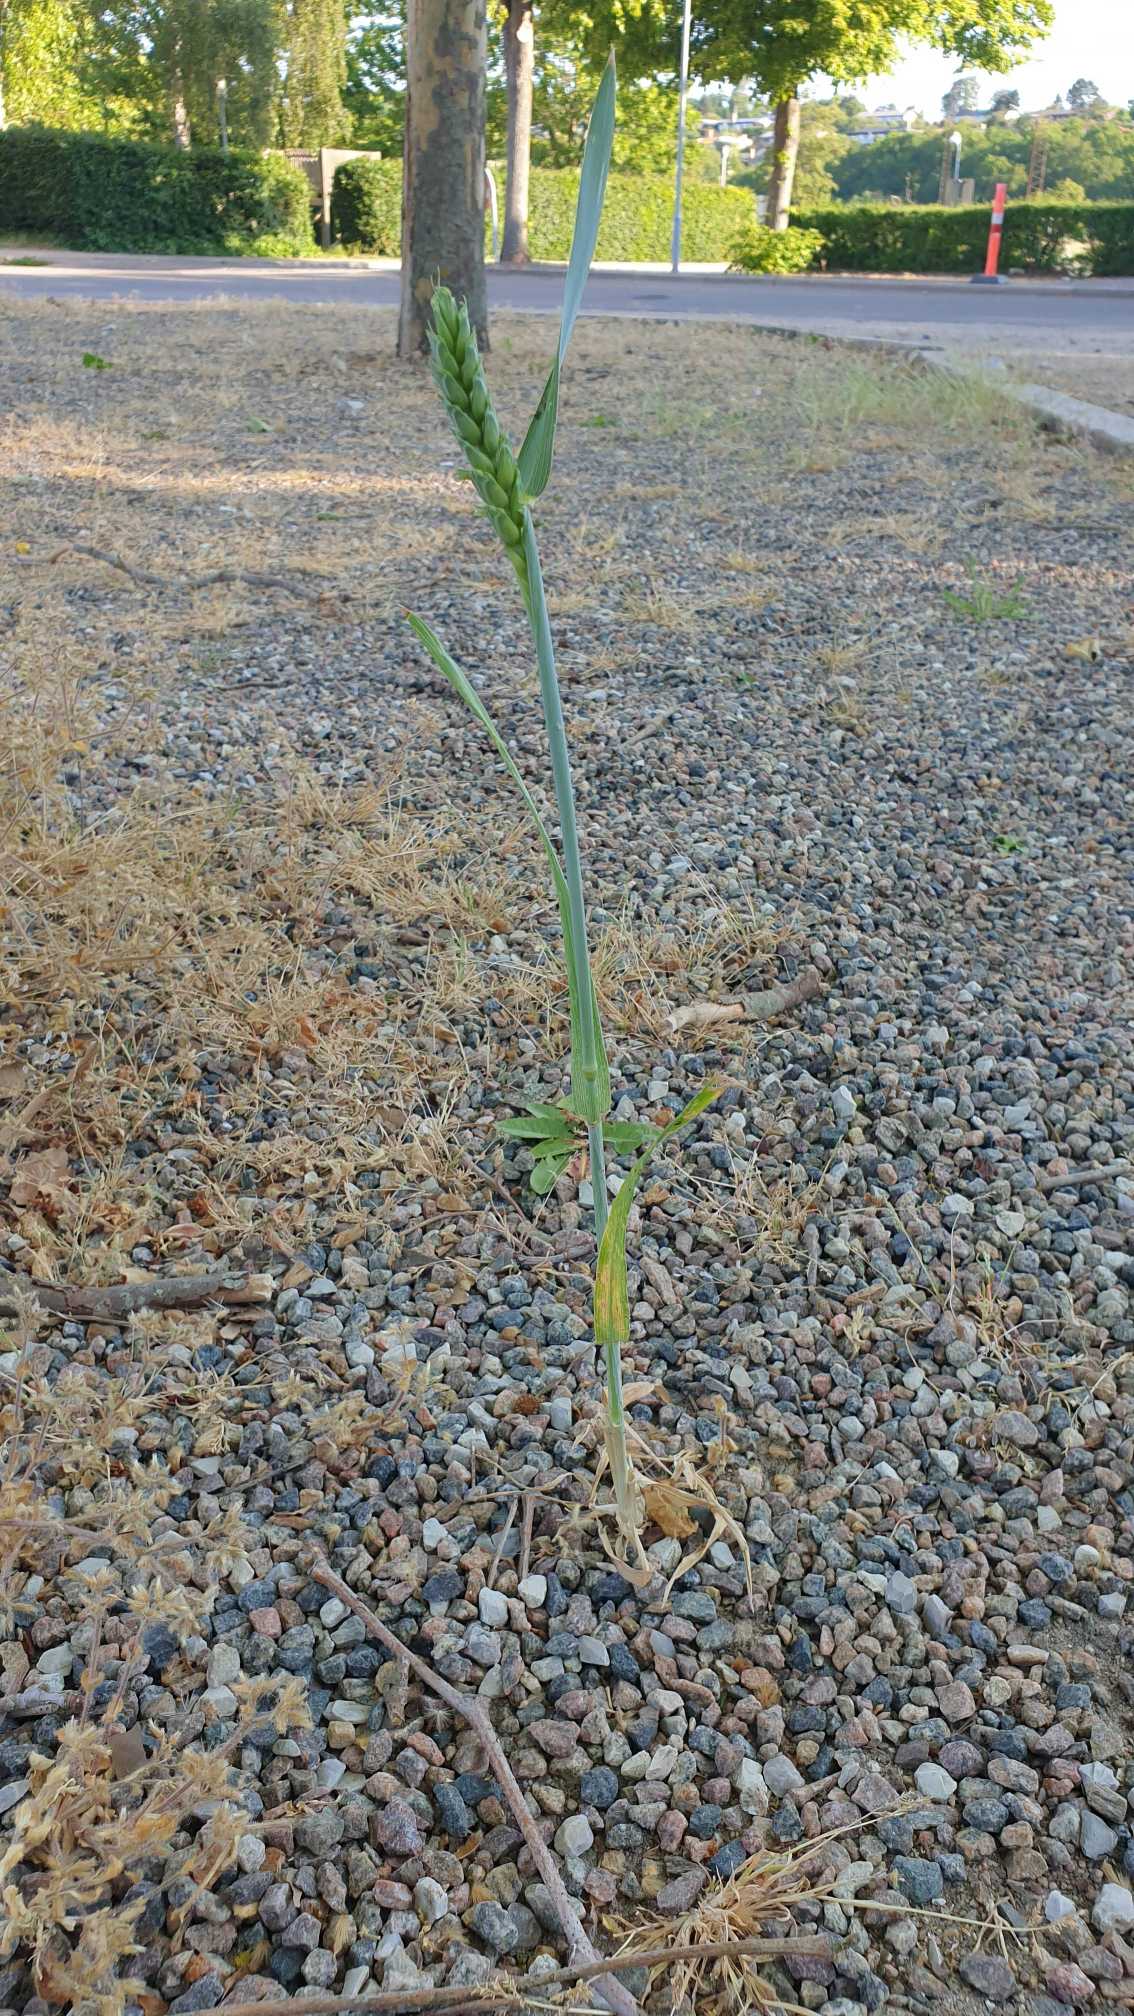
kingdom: Plantae
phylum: Tracheophyta
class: Liliopsida
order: Poales
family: Poaceae
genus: Triticum
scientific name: Triticum aestivum
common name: Almindelig hvede
